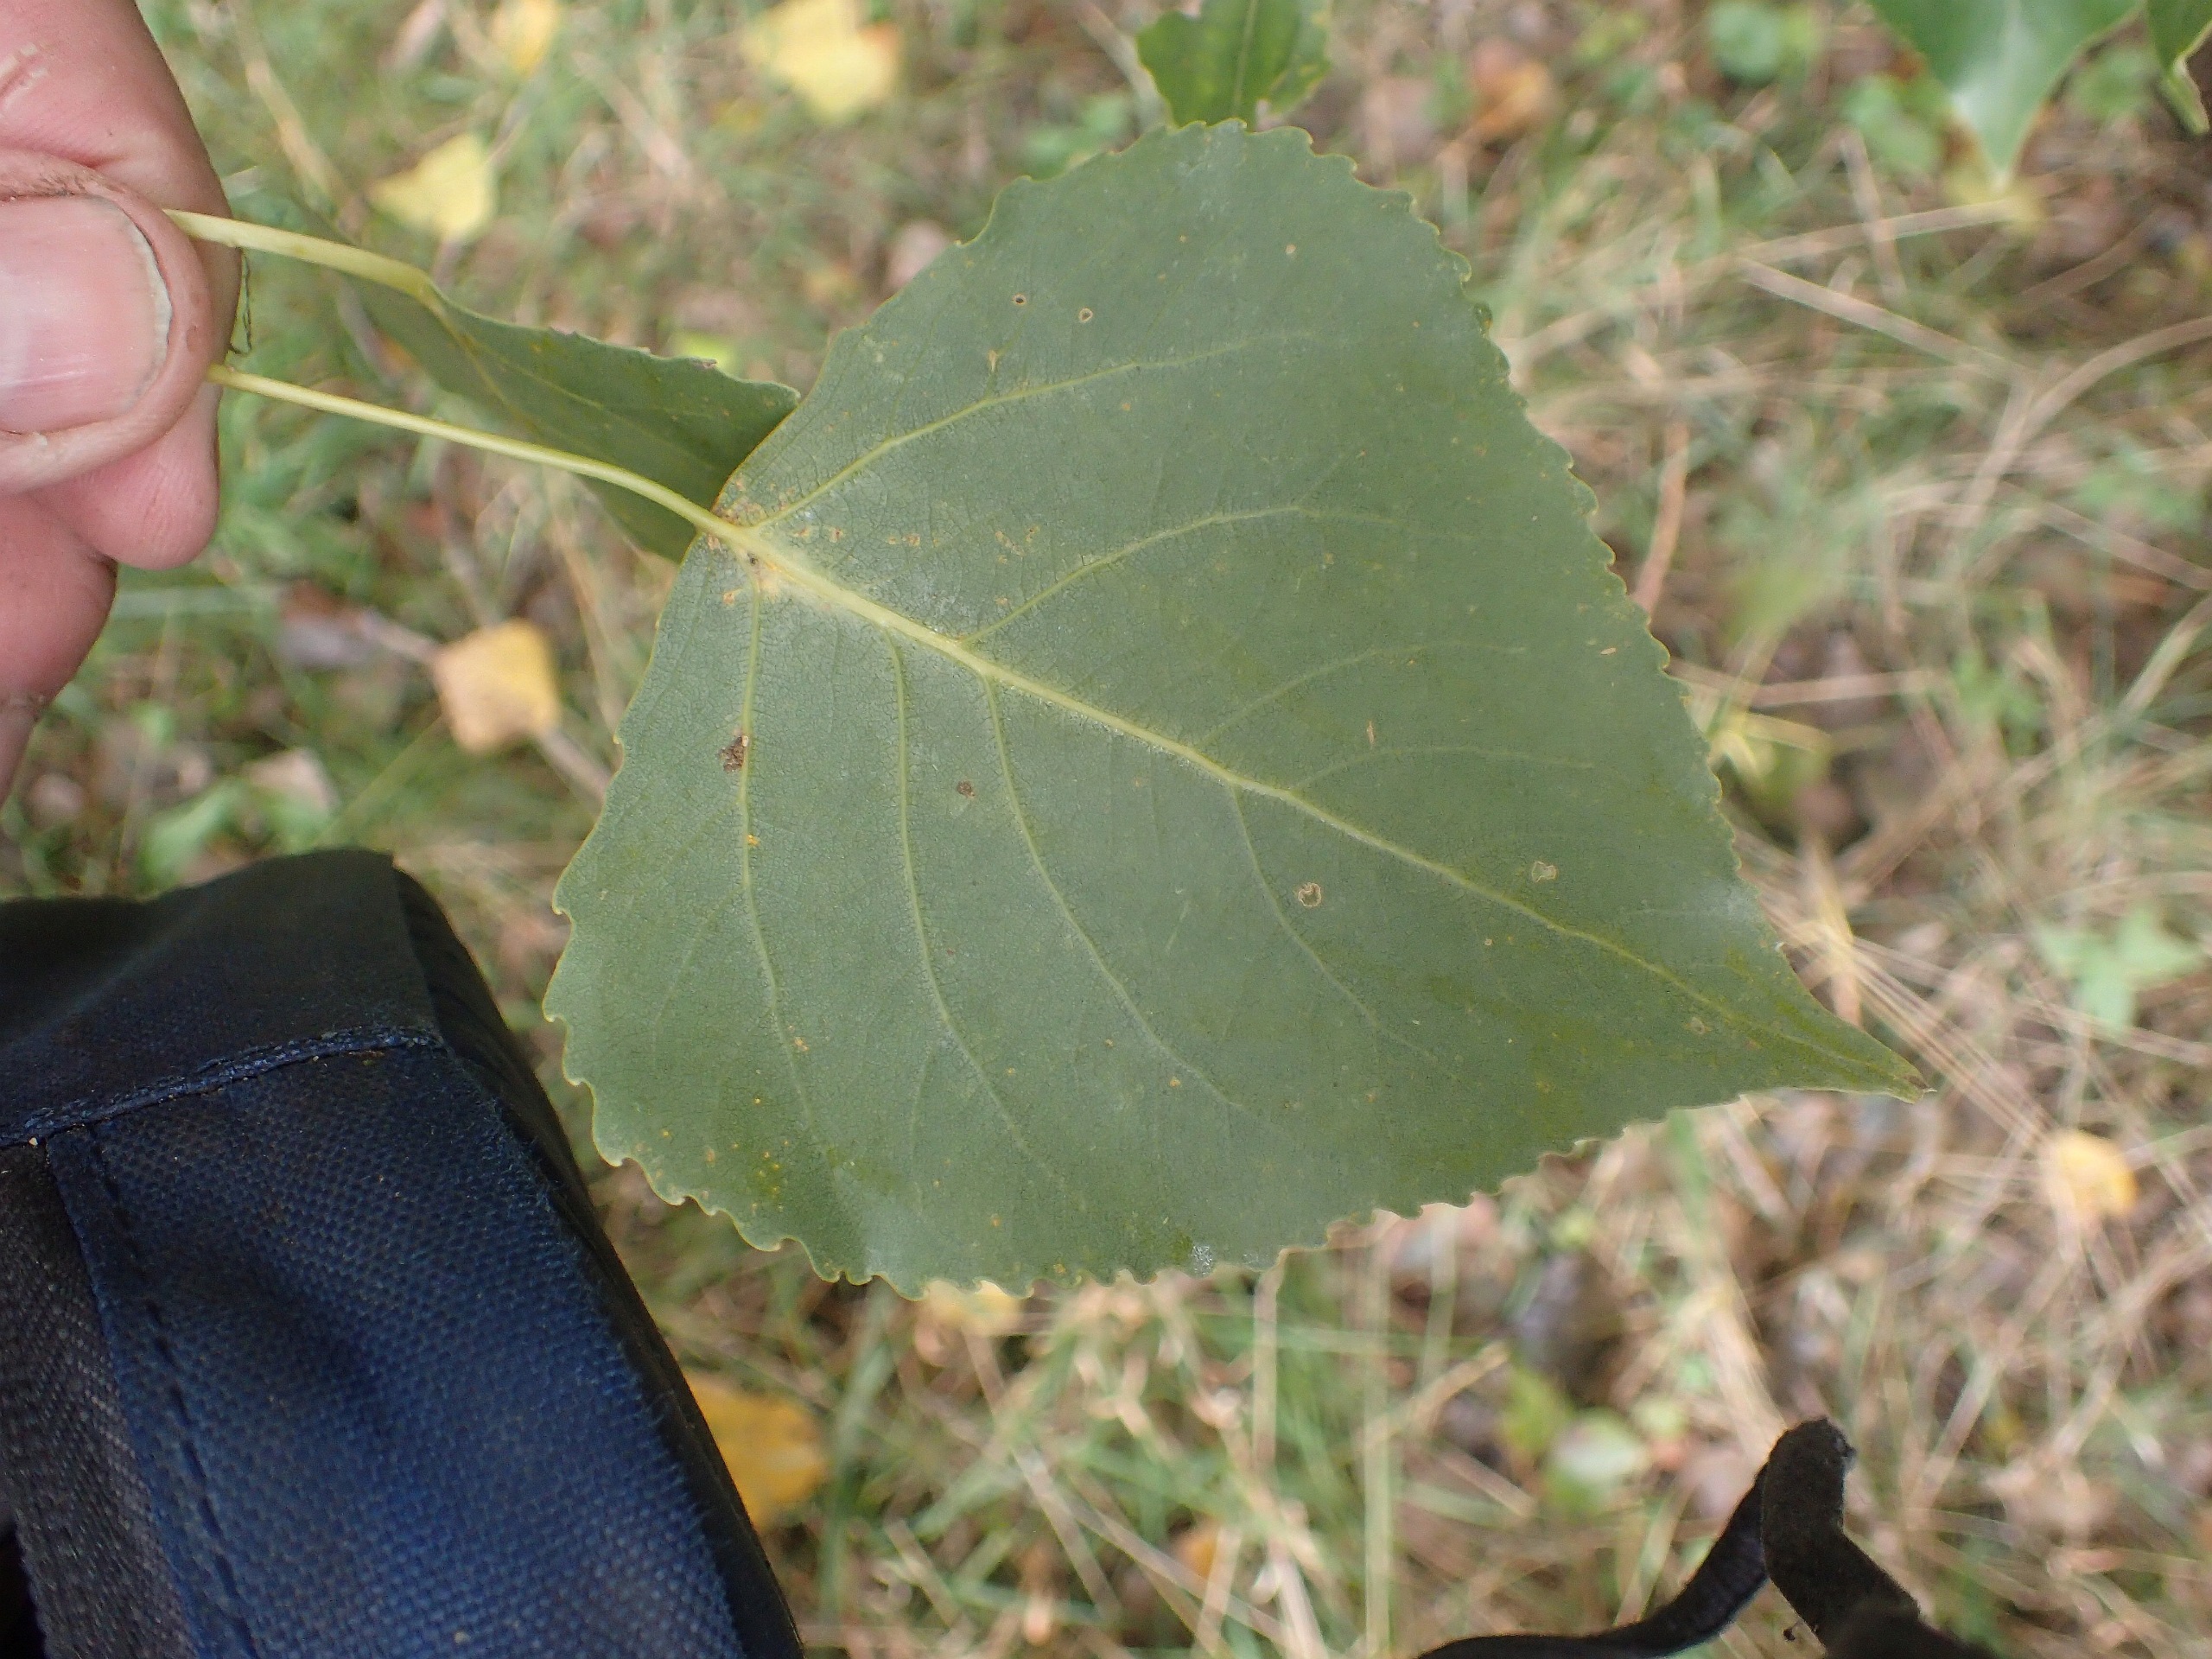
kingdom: Plantae
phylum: Tracheophyta
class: Magnoliopsida
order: Malpighiales
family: Salicaceae
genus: Populus
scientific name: Populus canadensis
